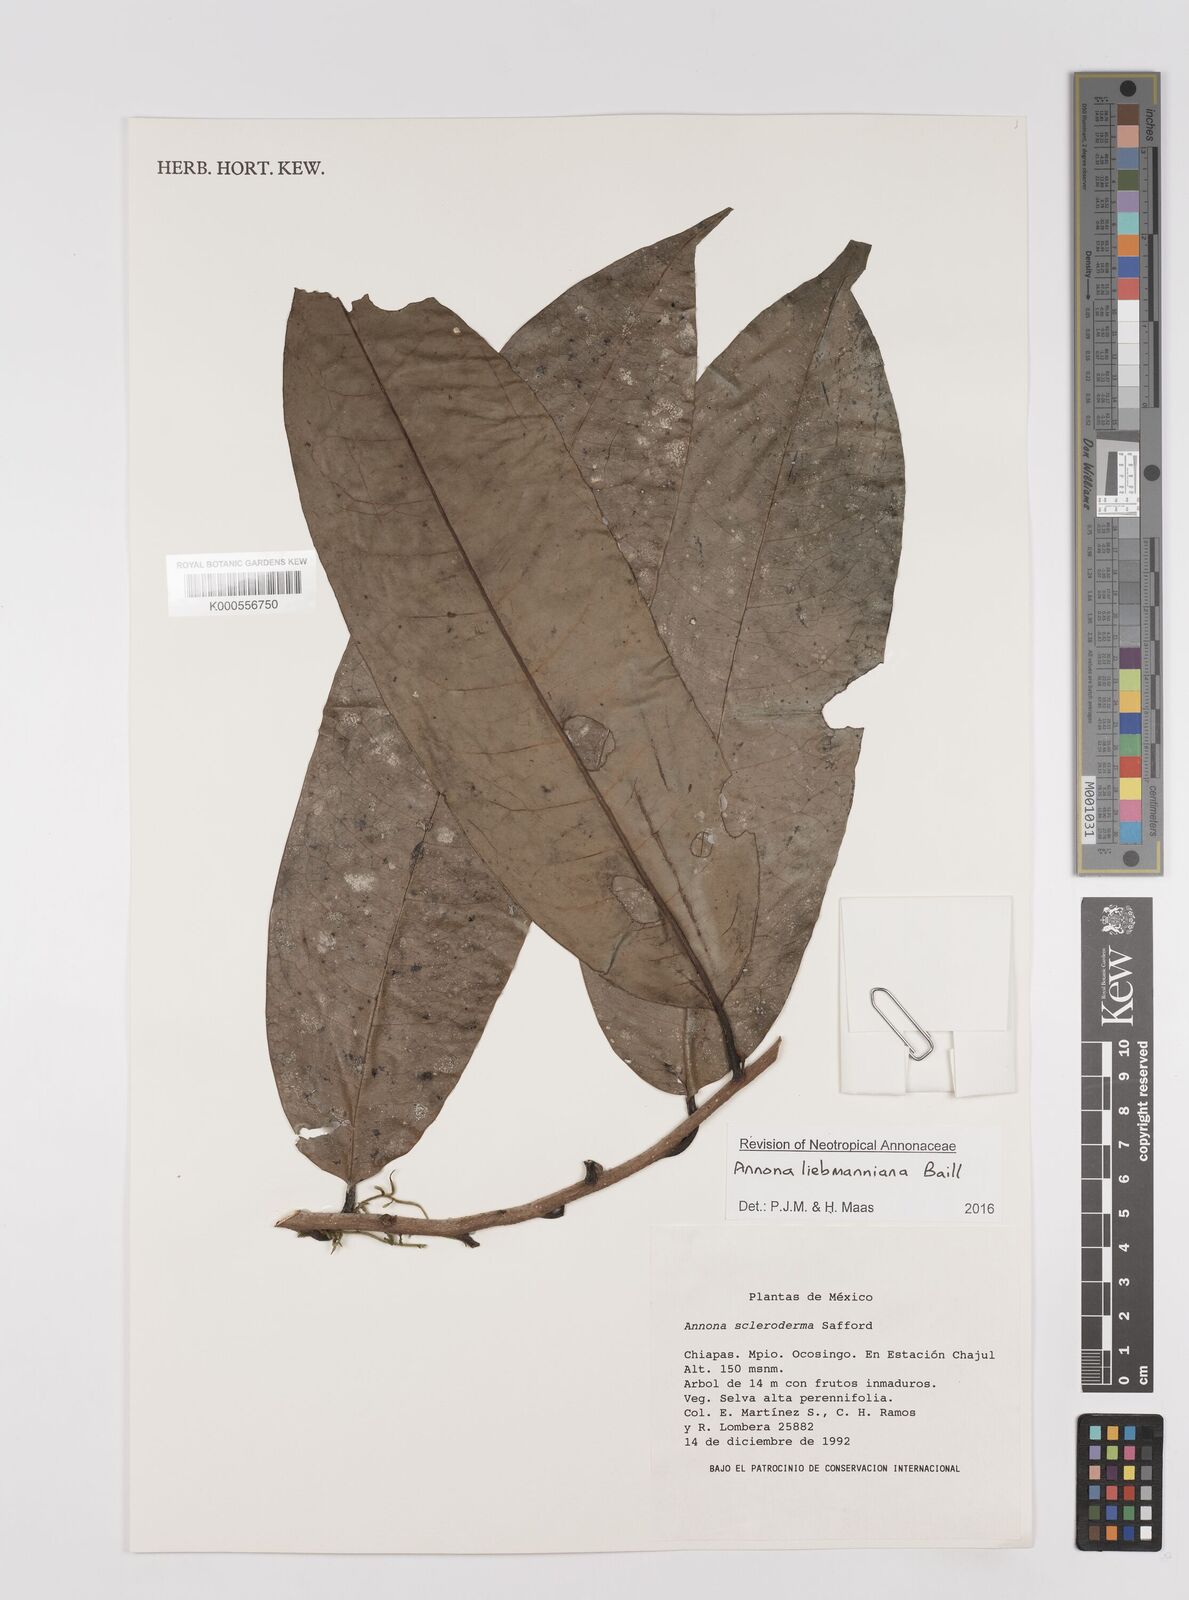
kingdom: Plantae
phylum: Tracheophyta
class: Magnoliopsida
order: Magnoliales
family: Annonaceae
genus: Annona
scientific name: Annona liebmanniana
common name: Hardshell custard-apple
